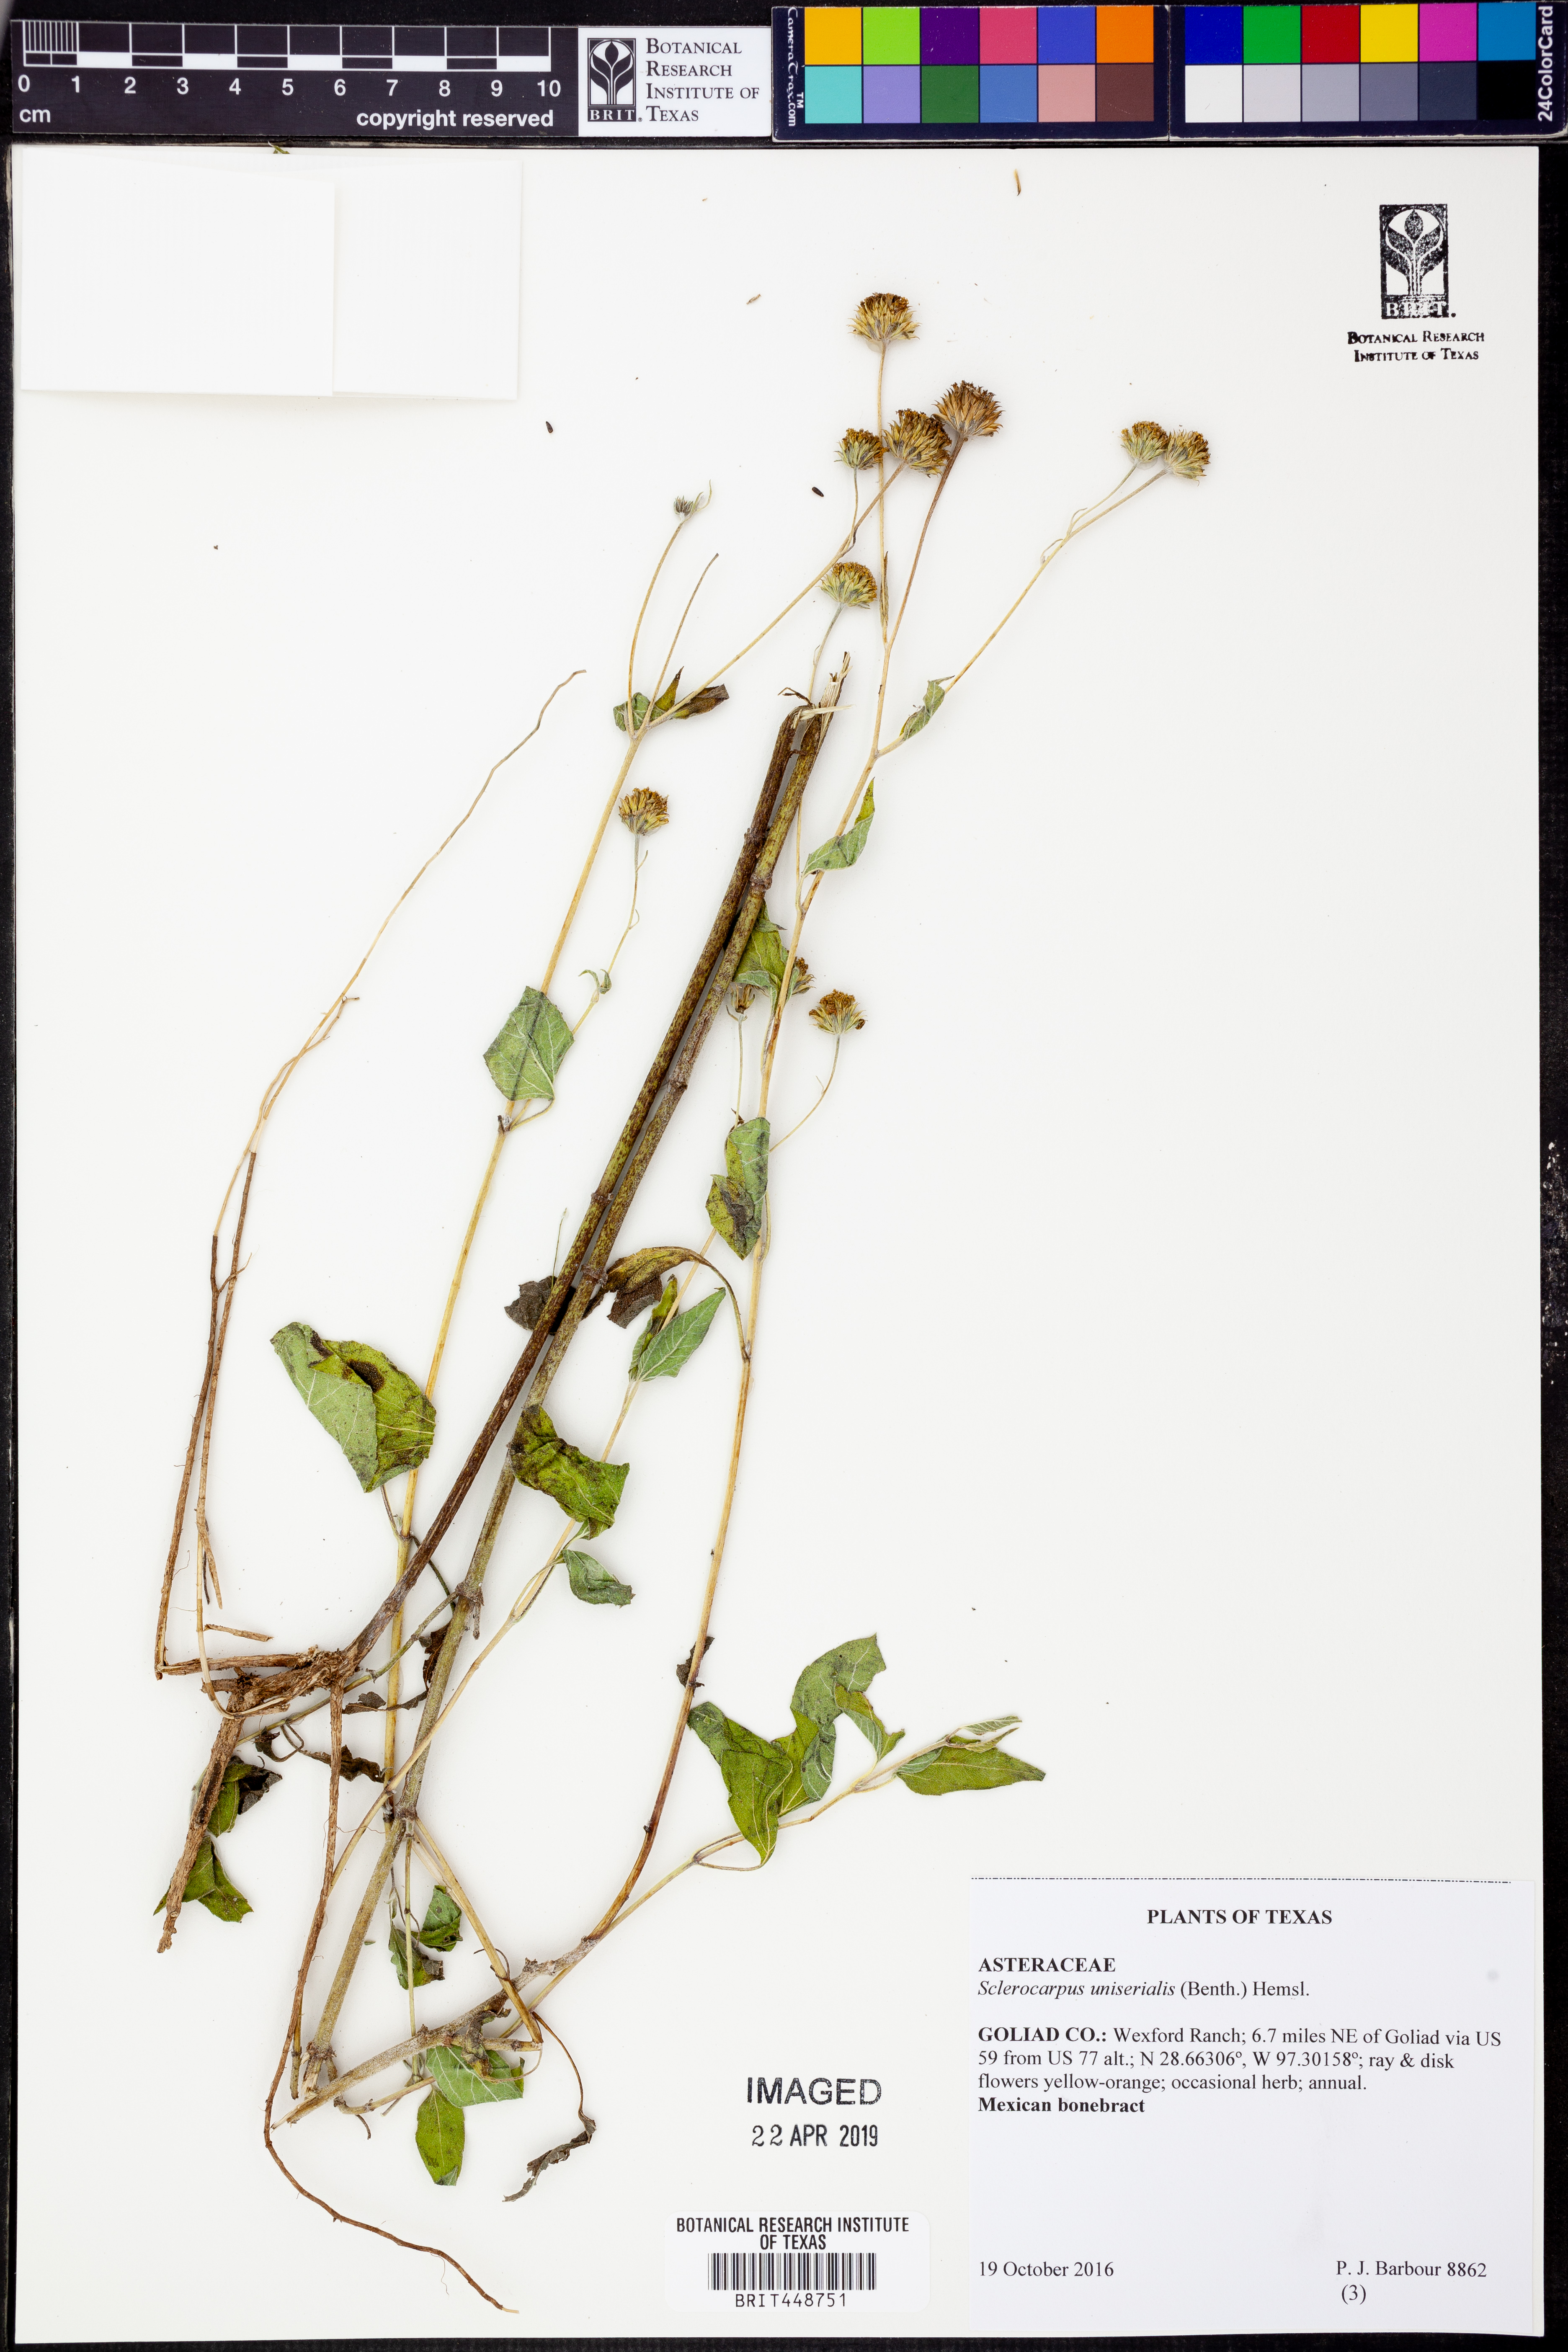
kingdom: Plantae
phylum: Tracheophyta
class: Magnoliopsida
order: Asterales
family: Asteraceae
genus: Sclerocarpus
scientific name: Sclerocarpus uniserialis
